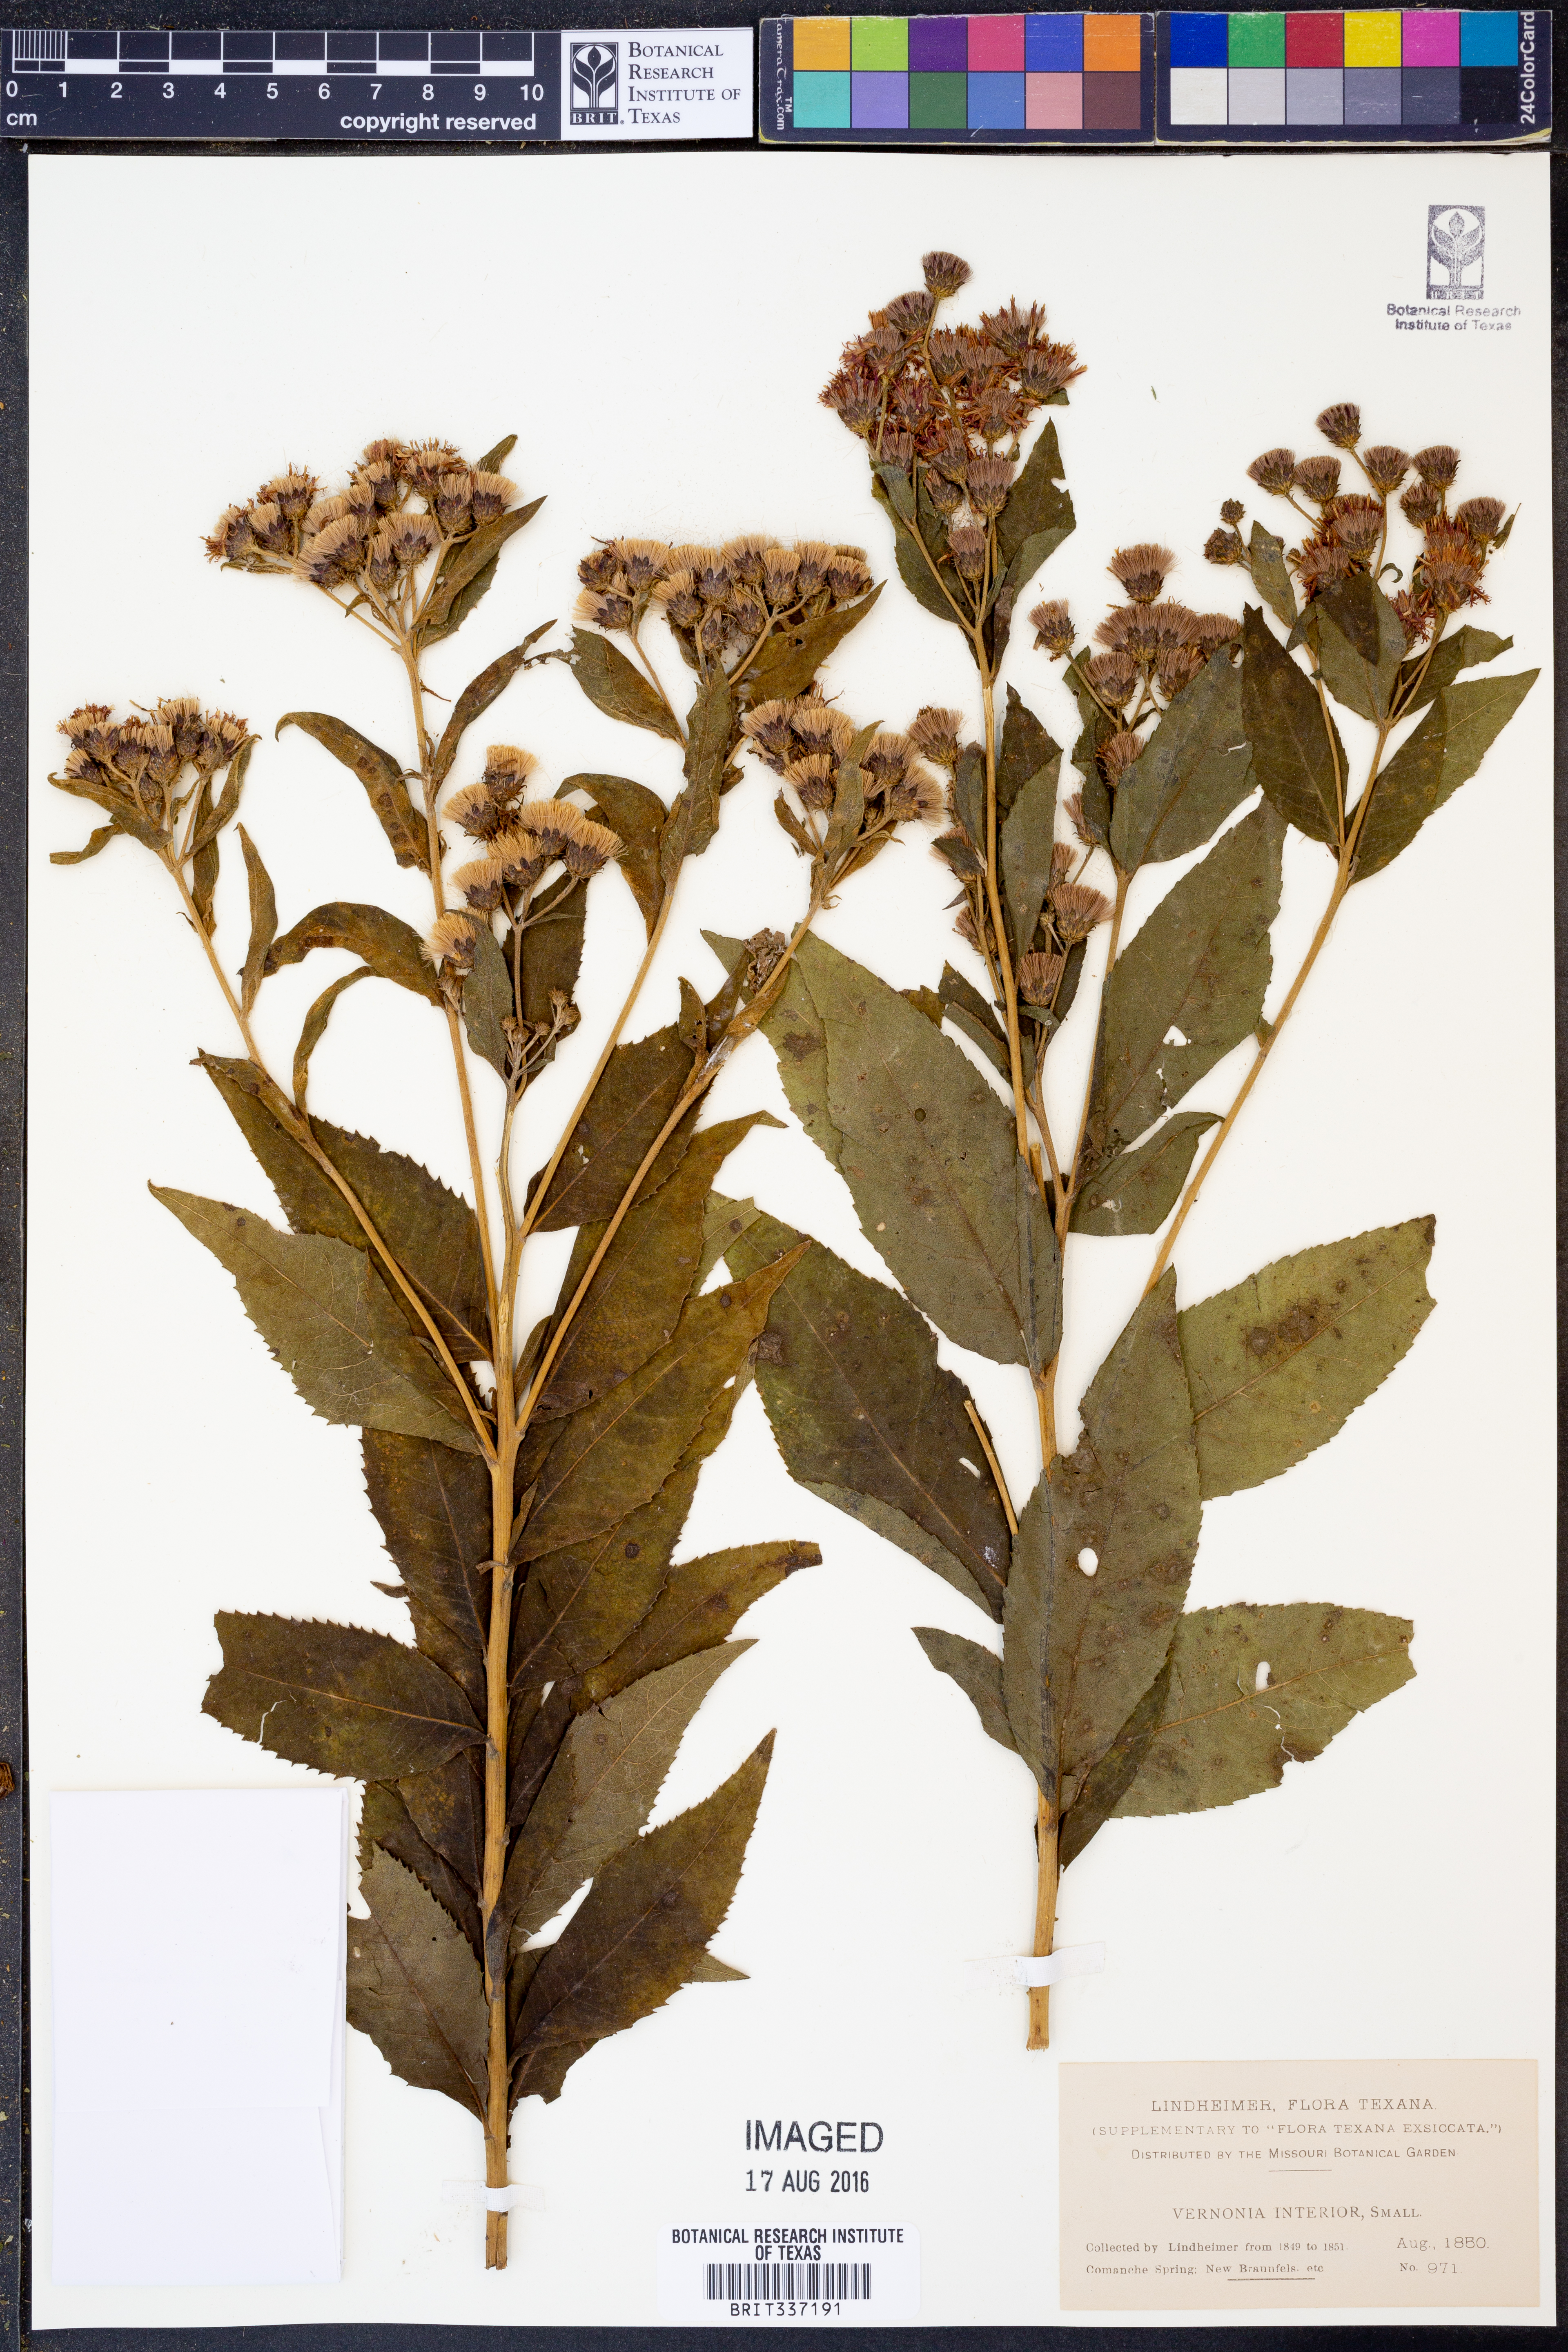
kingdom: Plantae
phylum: Tracheophyta
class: Magnoliopsida
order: Asterales
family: Asteraceae
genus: Vernonia
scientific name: Vernonia baldwinii
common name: Western ironweed
